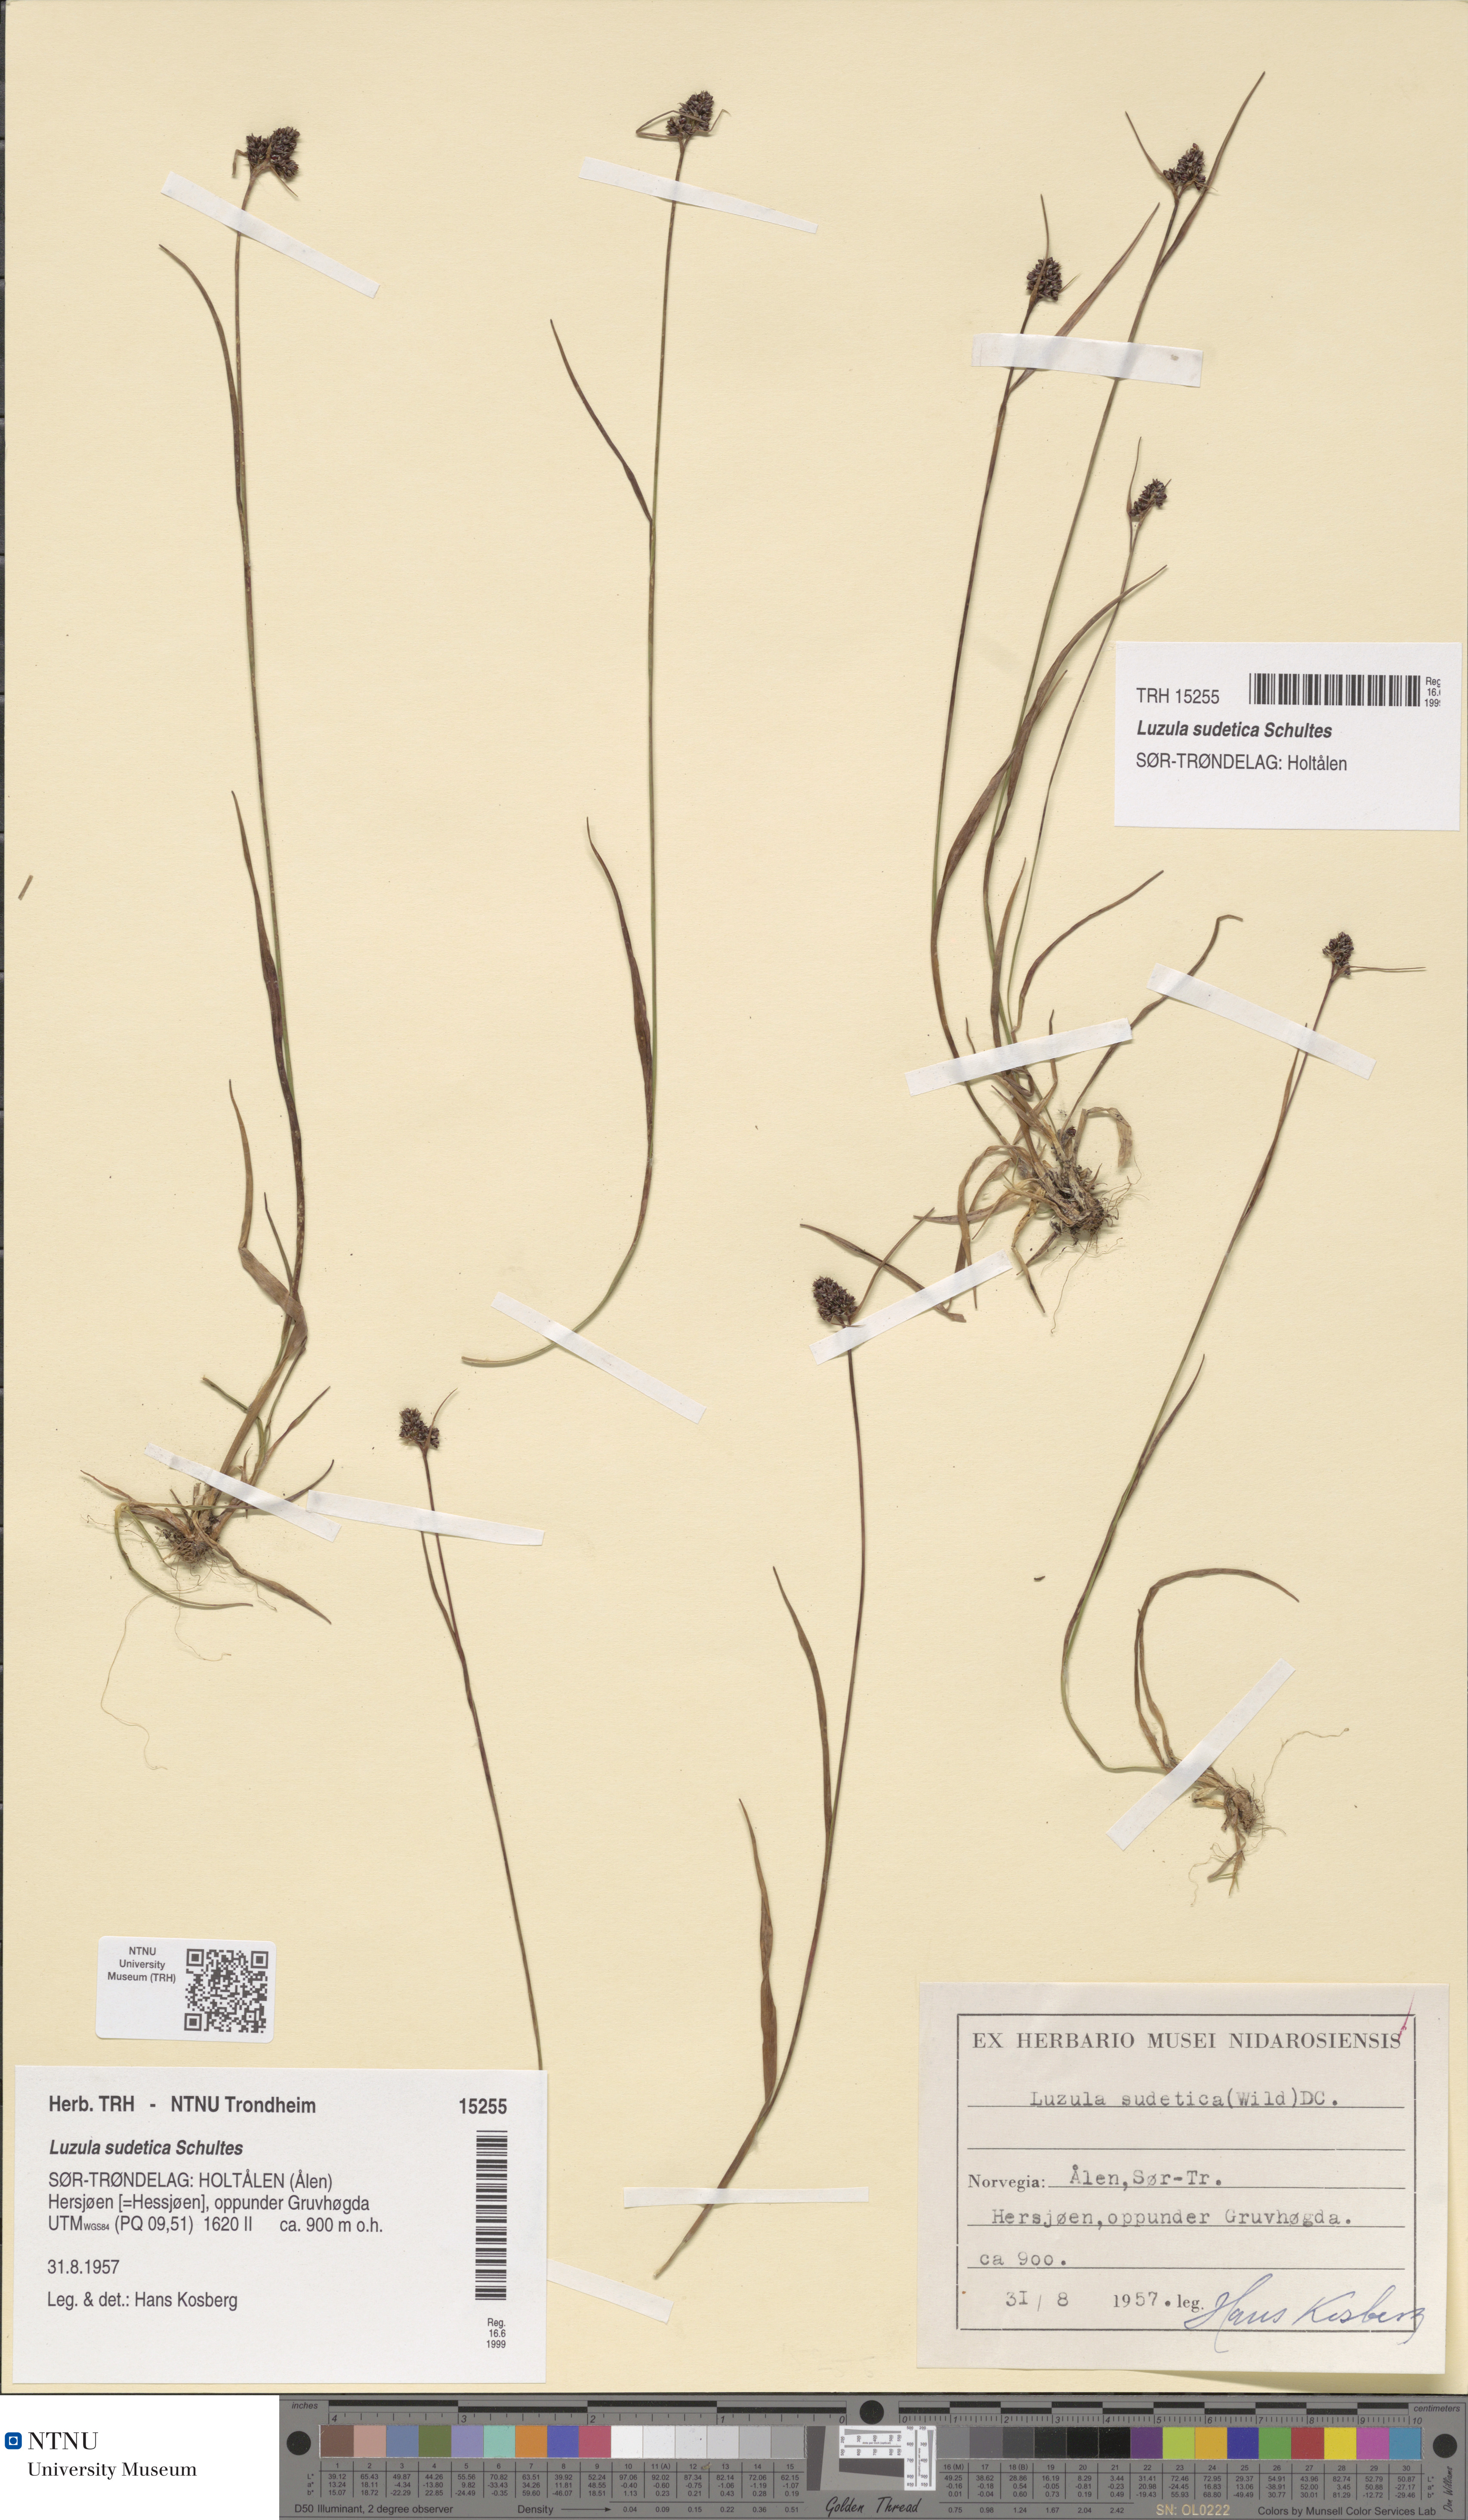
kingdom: Plantae
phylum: Tracheophyta
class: Liliopsida
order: Poales
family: Juncaceae
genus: Luzula
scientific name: Luzula sudetica
